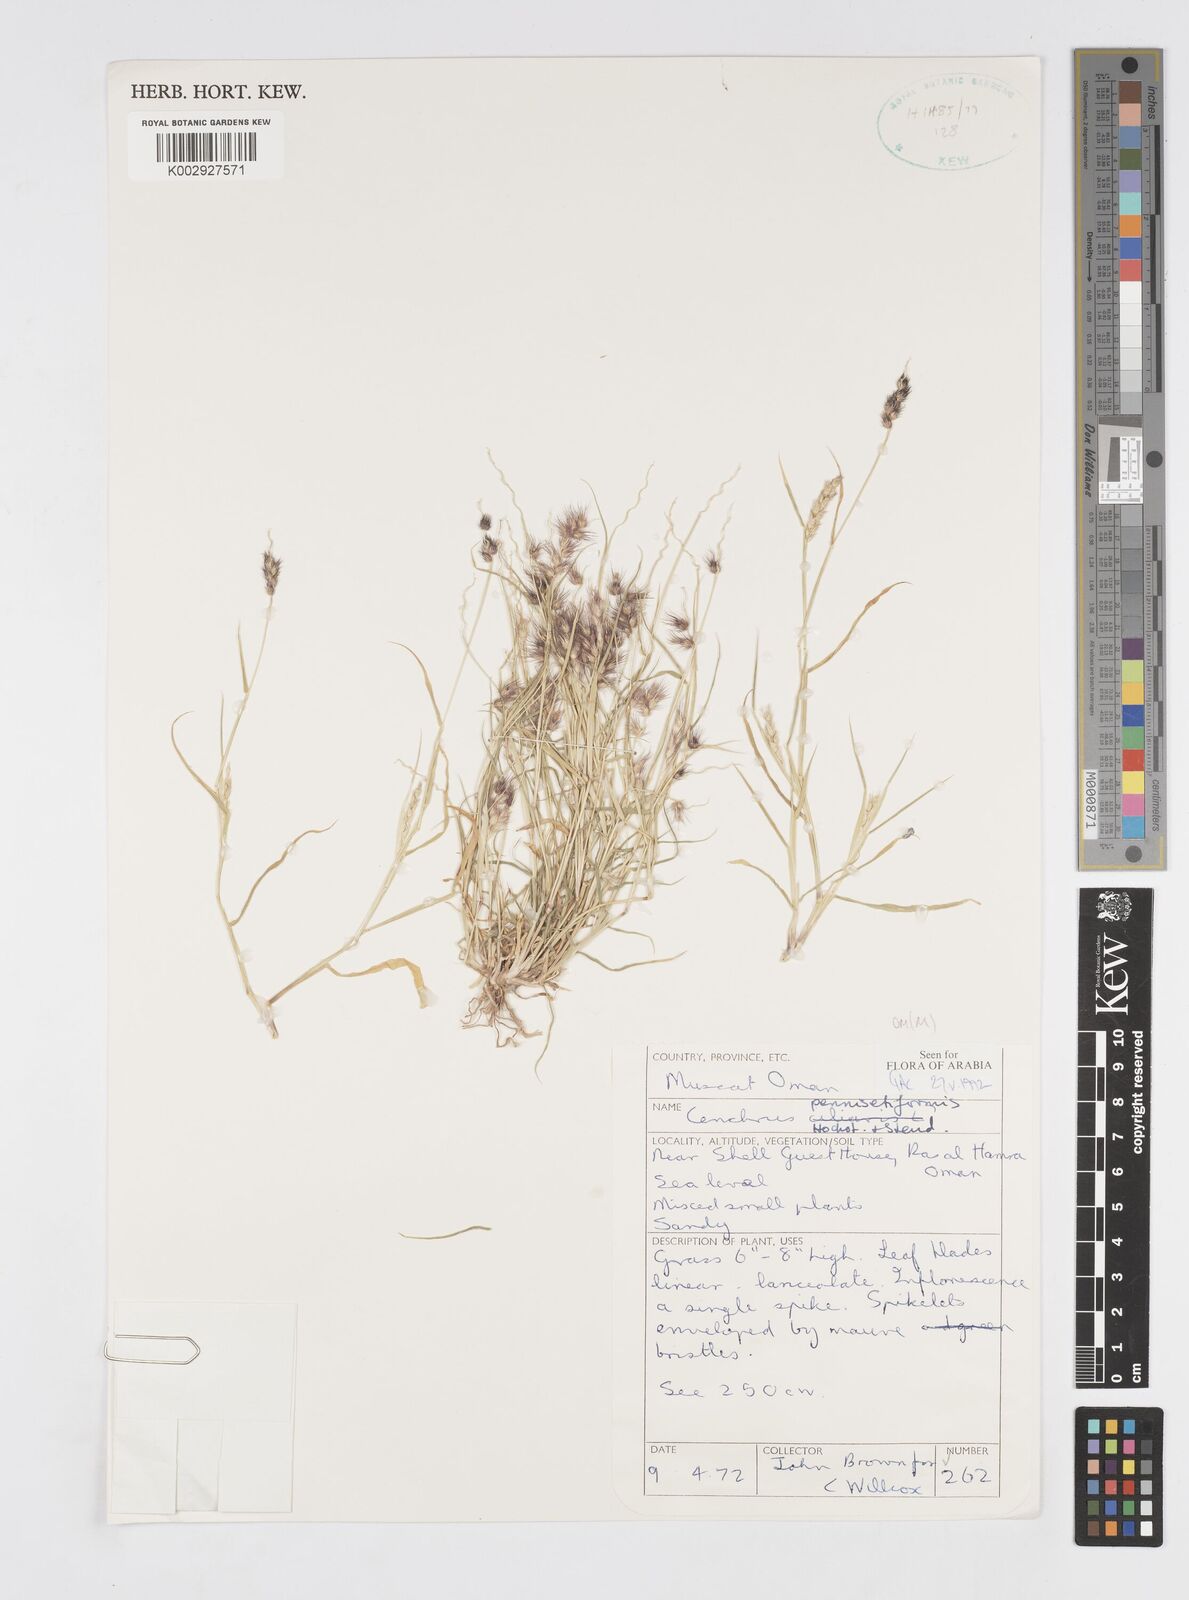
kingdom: Plantae
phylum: Tracheophyta
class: Liliopsida
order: Poales
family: Poaceae
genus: Cenchrus
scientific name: Cenchrus pennisetiformis
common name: Cloncurry
